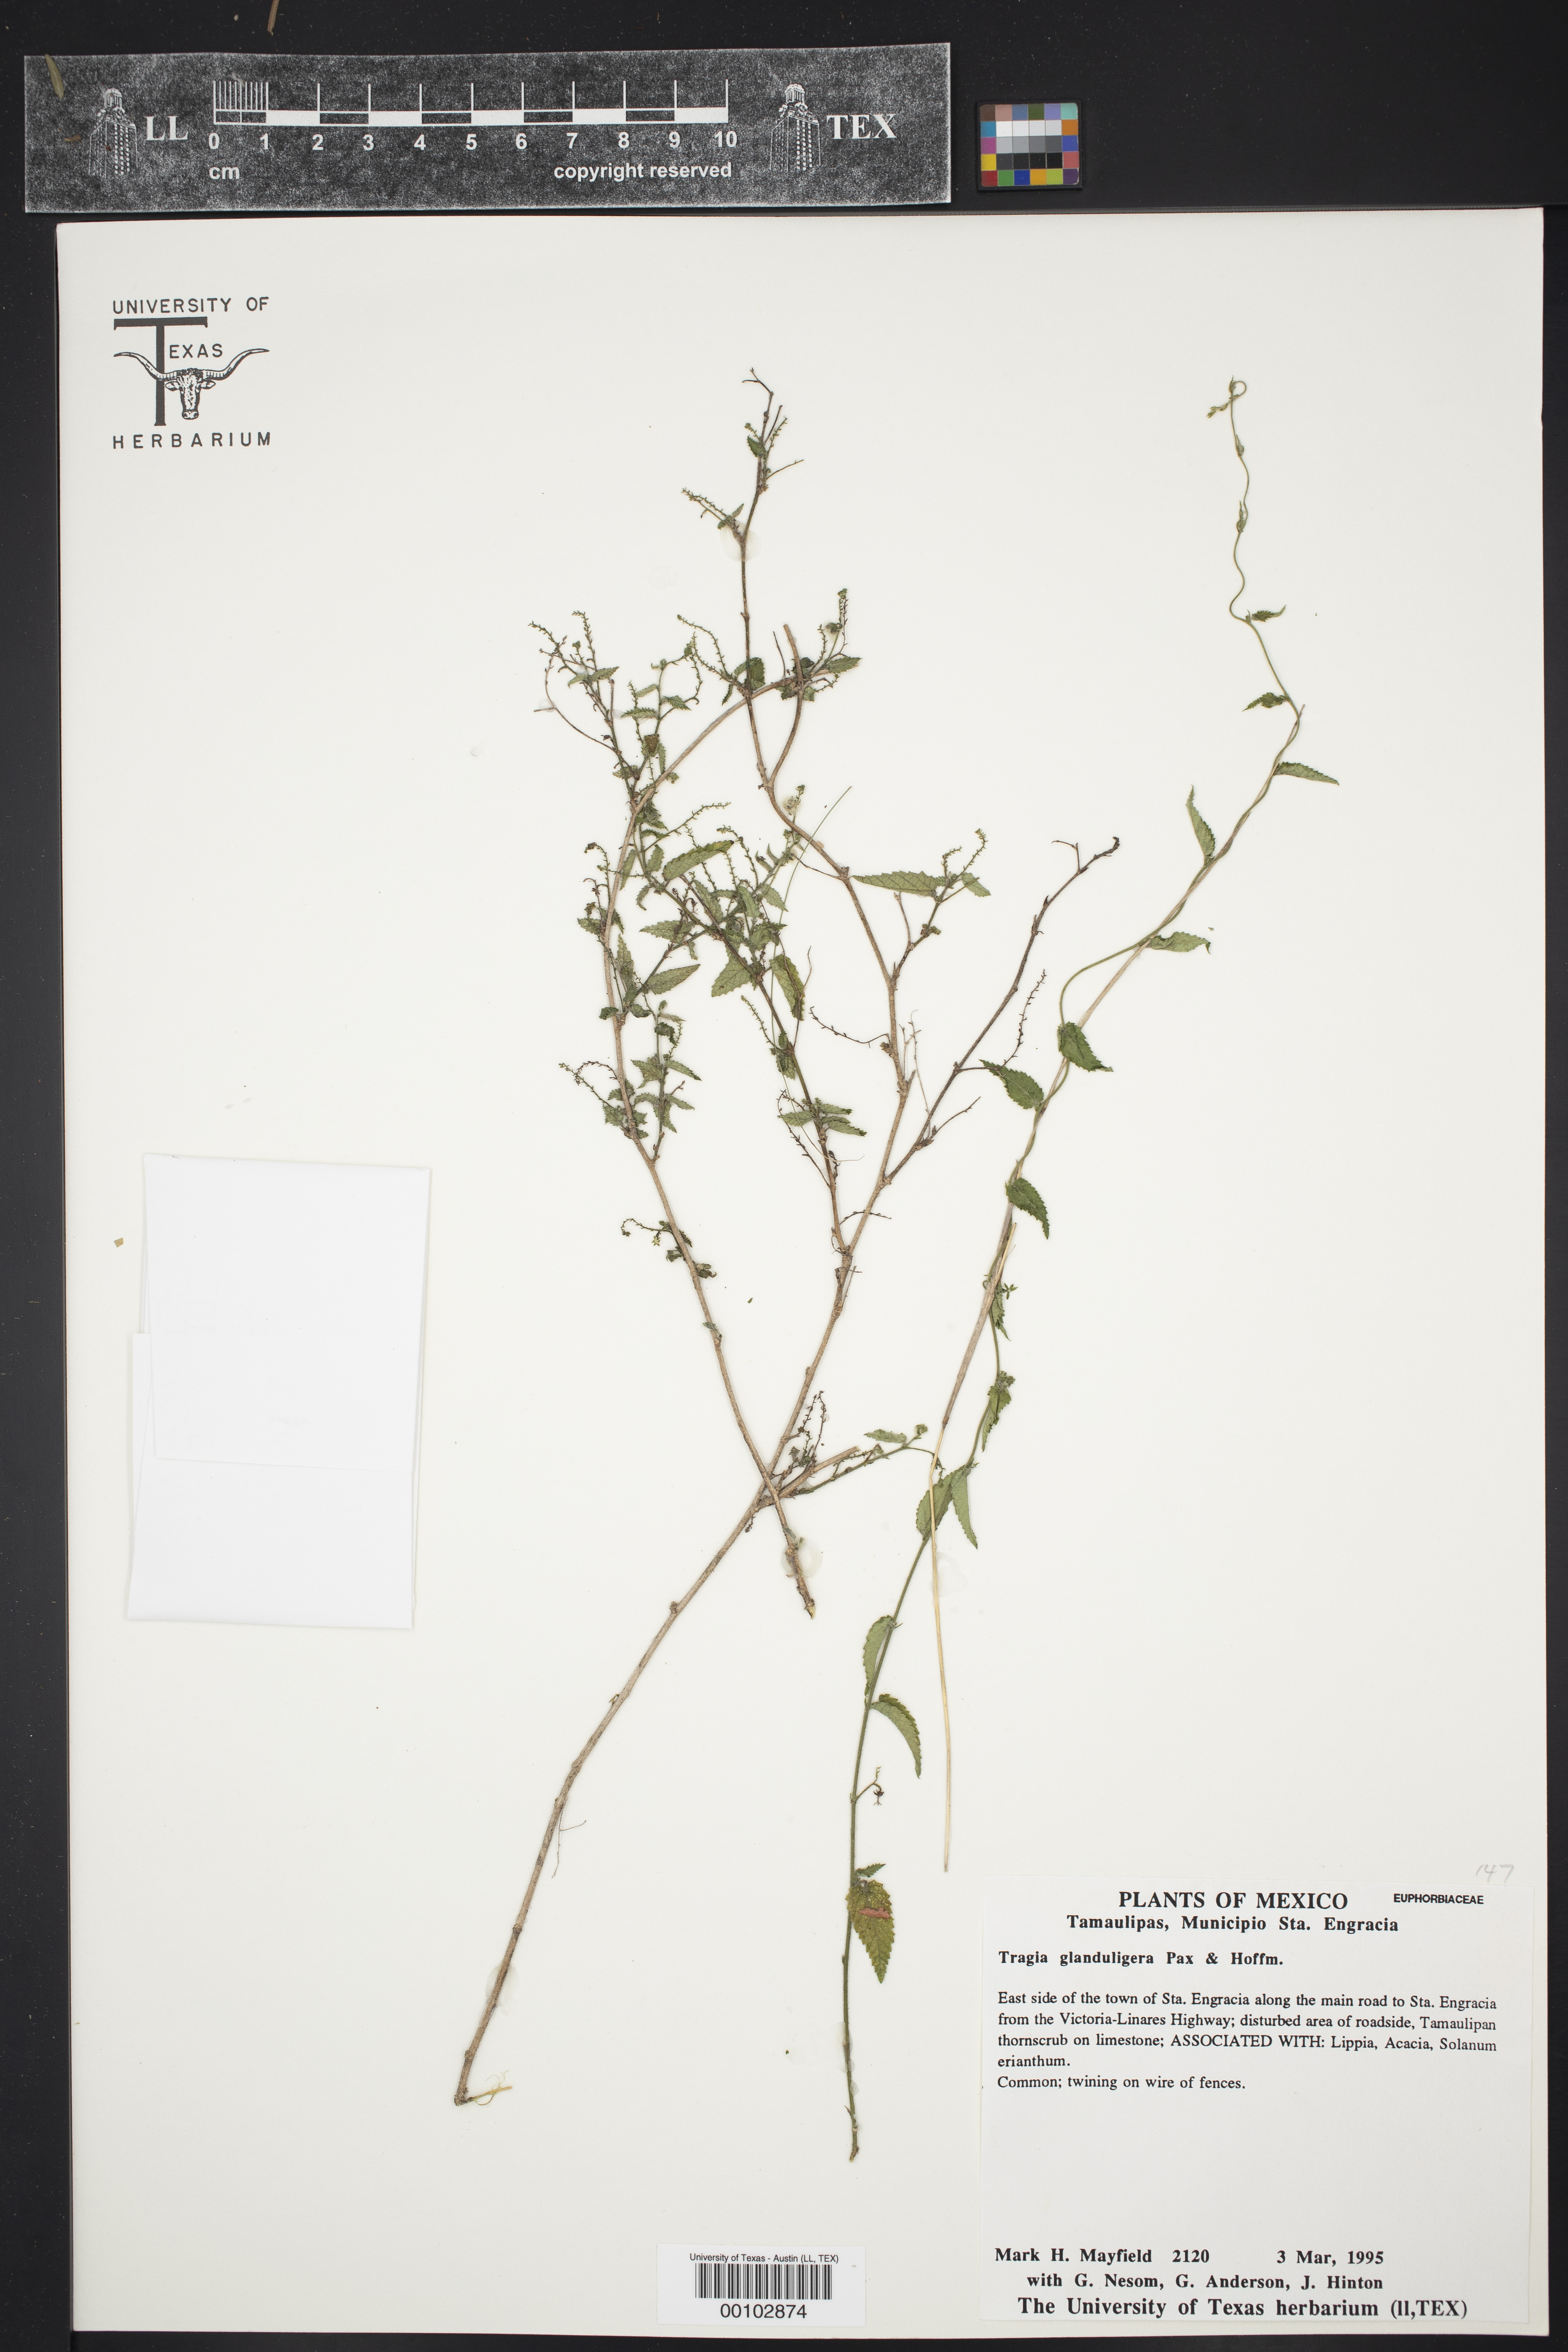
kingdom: Plantae
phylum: Tracheophyta
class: Magnoliopsida
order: Malpighiales
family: Euphorbiaceae
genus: Tragia
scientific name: Tragia glanduligera
